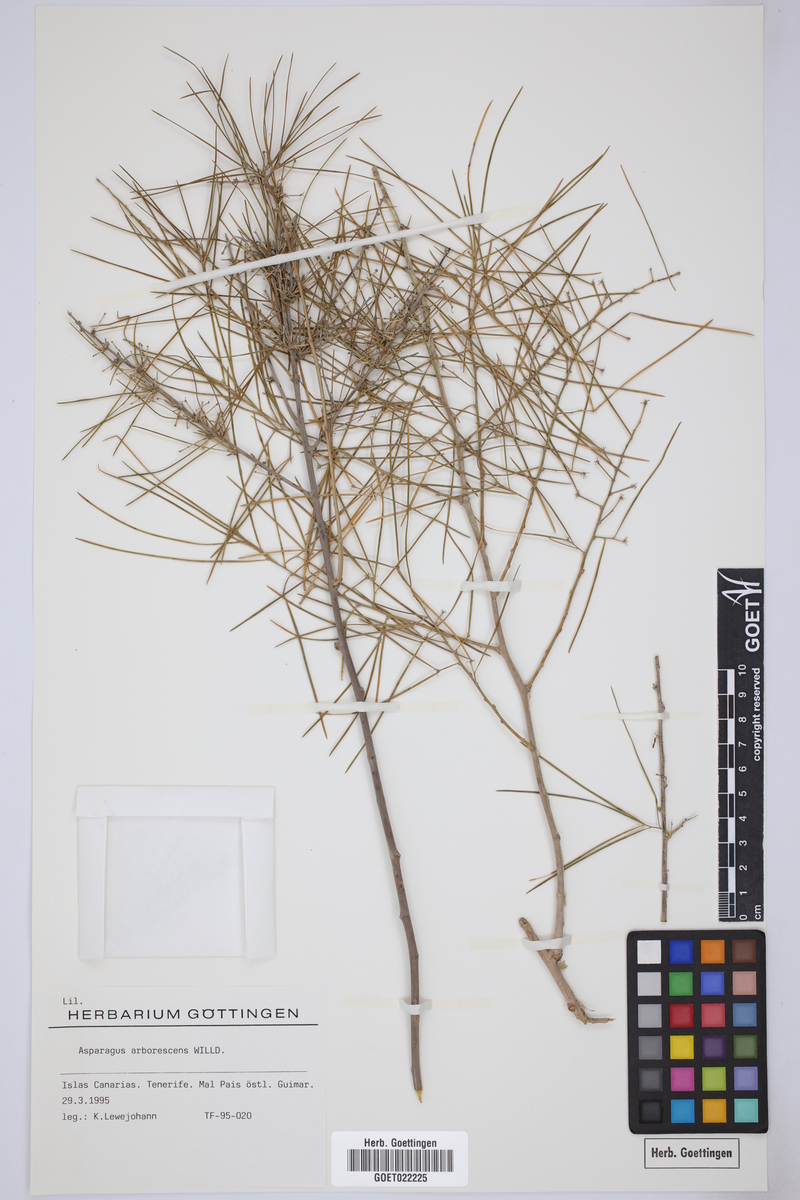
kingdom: Plantae
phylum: Tracheophyta
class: Liliopsida
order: Asparagales
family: Asparagaceae
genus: Asparagus
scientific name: Asparagus arborescens
